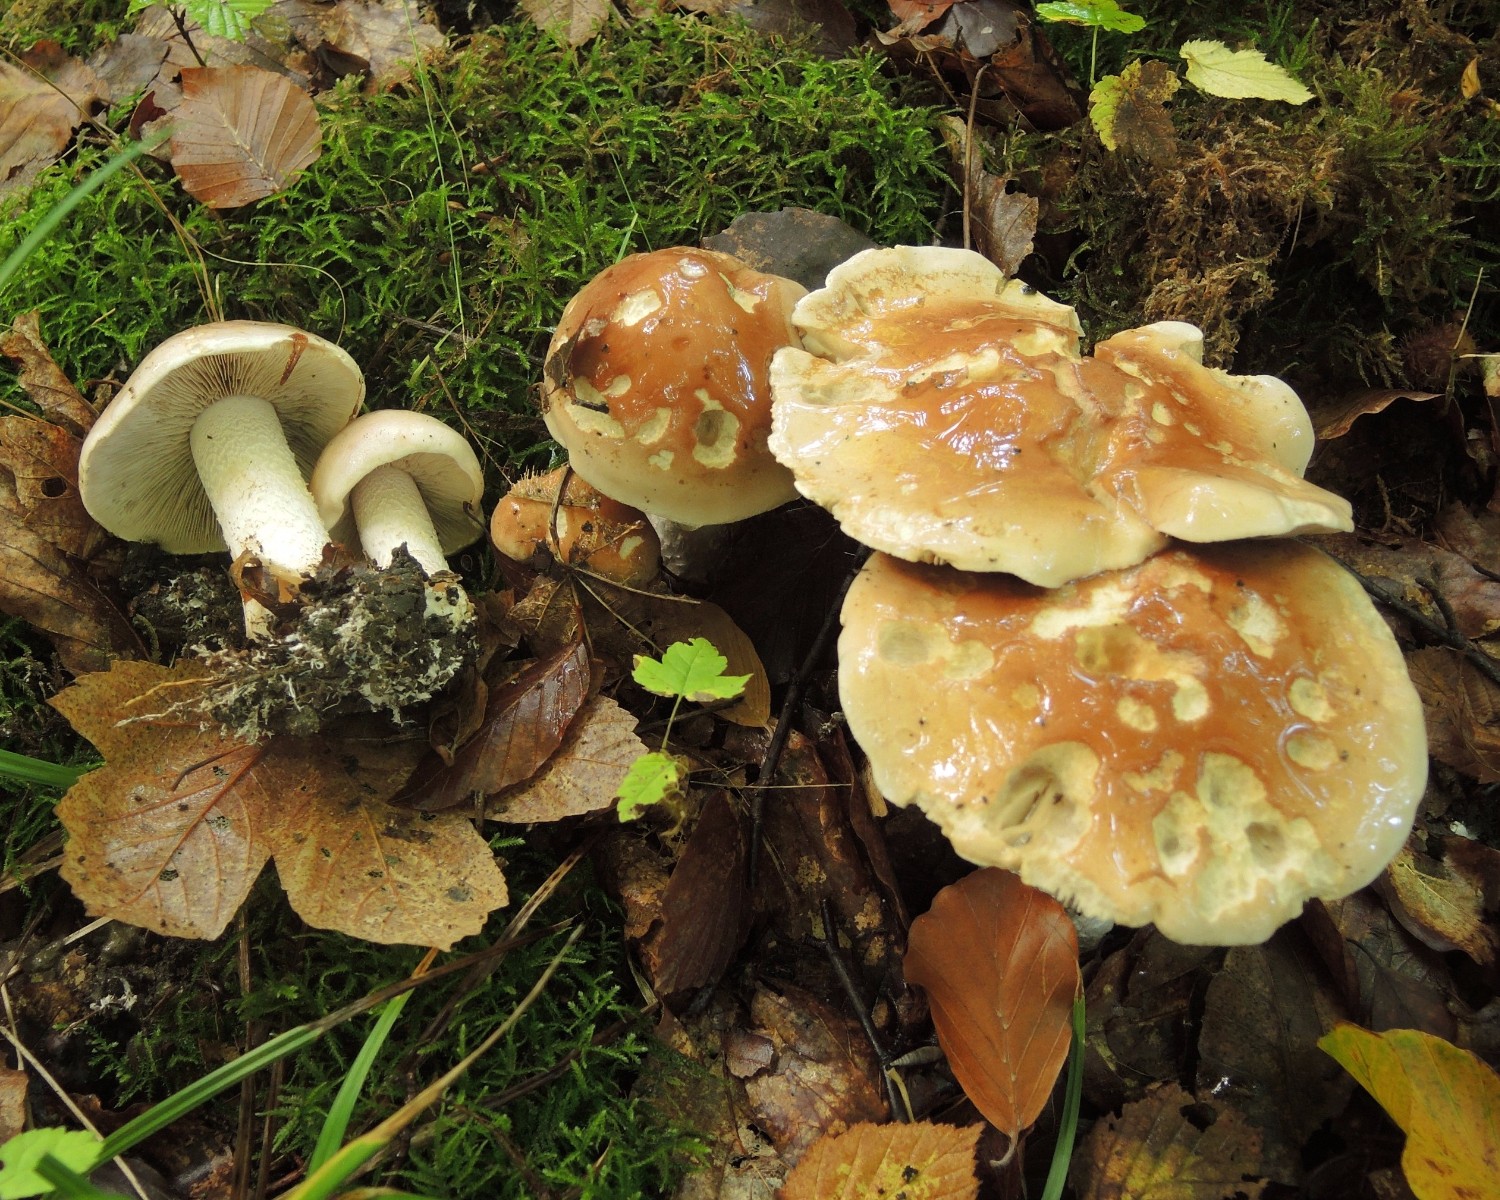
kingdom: Fungi
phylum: Basidiomycota
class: Agaricomycetes
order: Agaricales
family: Hymenogastraceae
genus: Hebeloma
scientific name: Hebeloma sinapizans
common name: ræddike-tåreblad
